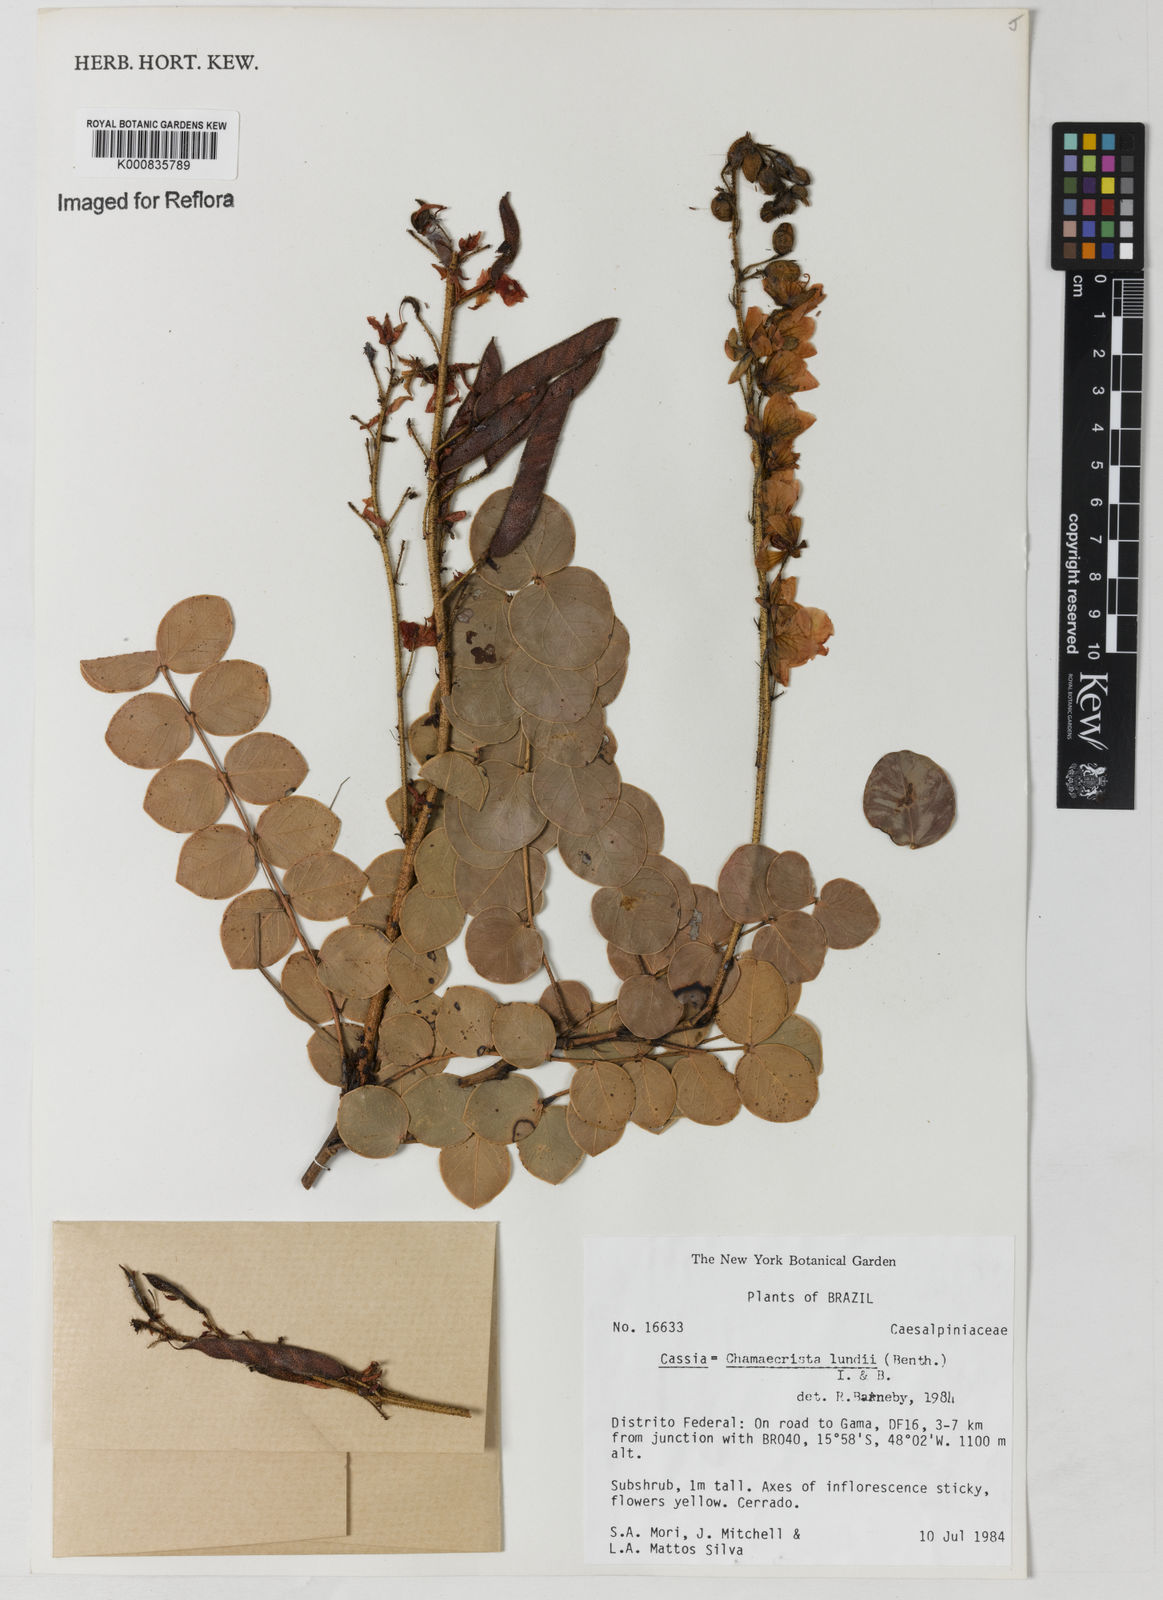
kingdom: Plantae
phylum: Tracheophyta
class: Magnoliopsida
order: Fabales
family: Fabaceae
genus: Chamaecrista
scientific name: Chamaecrista lundii
